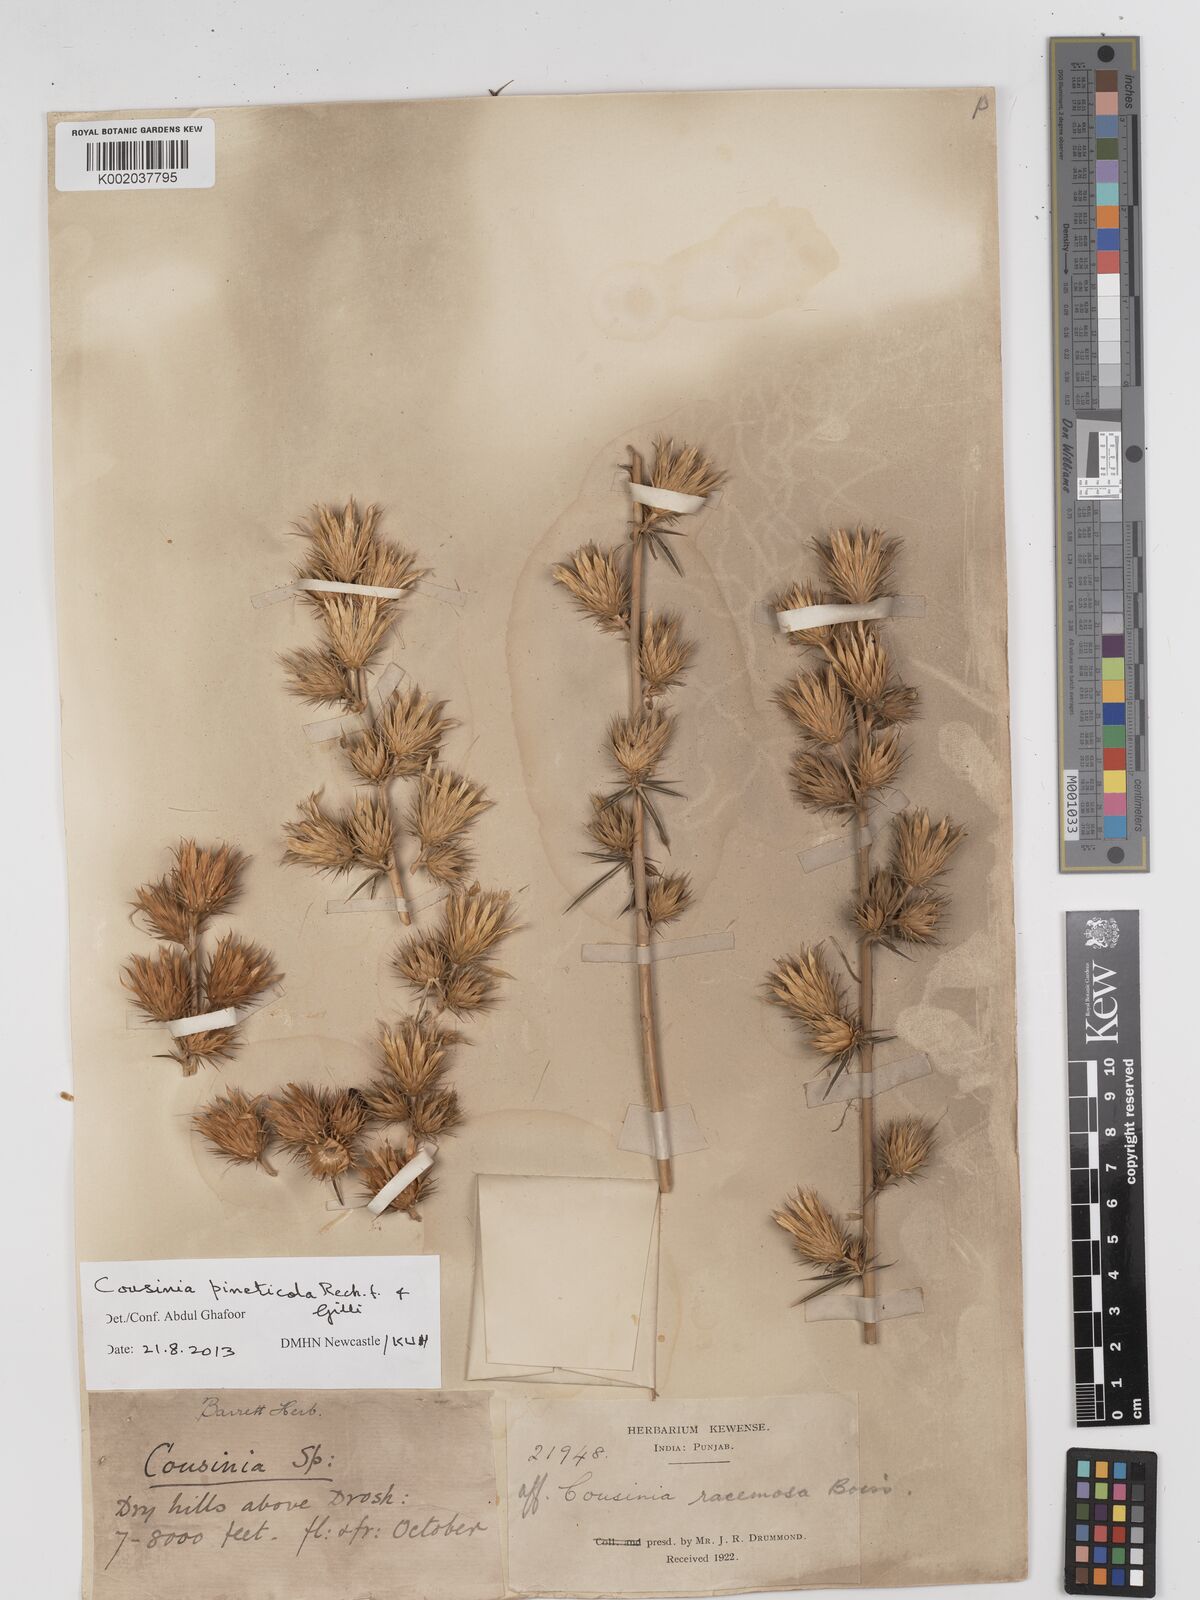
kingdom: Plantae
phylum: Tracheophyta
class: Magnoliopsida
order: Asterales
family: Asteraceae
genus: Cousinia
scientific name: Cousinia pineticola
